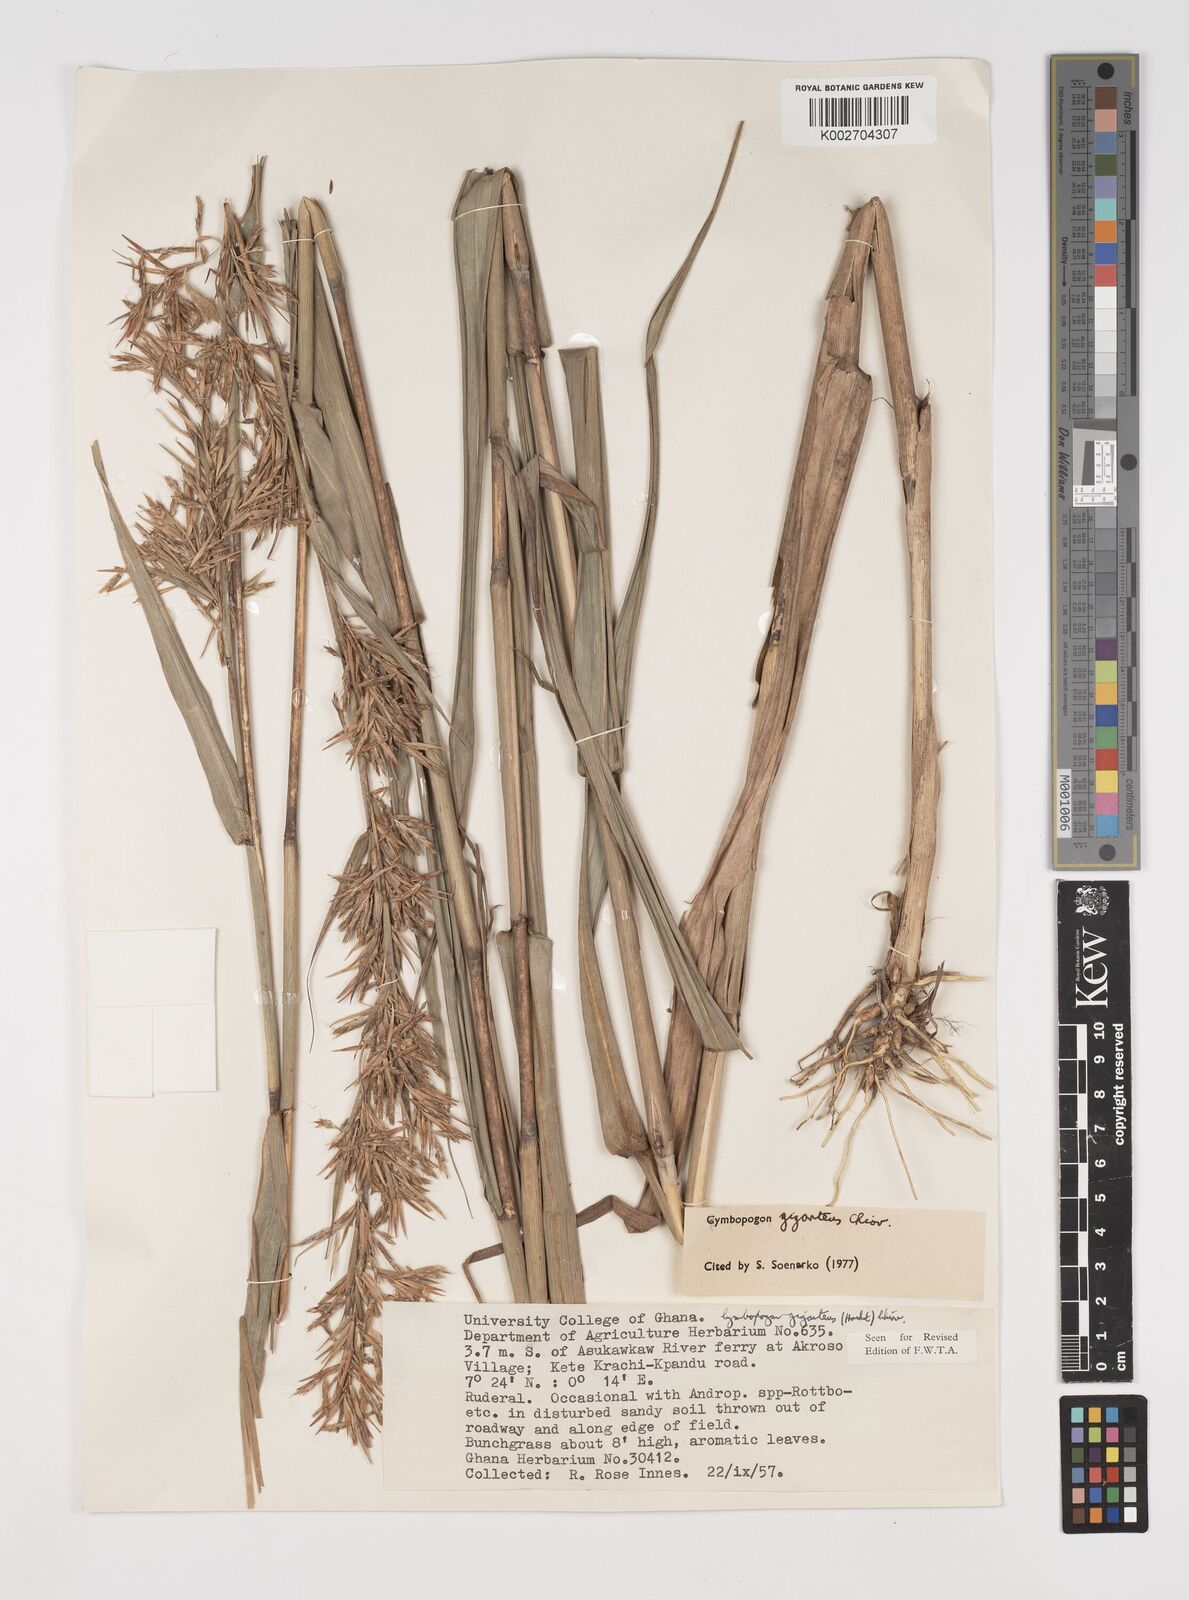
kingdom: Plantae
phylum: Tracheophyta
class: Liliopsida
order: Poales
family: Poaceae
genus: Cymbopogon
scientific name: Cymbopogon giganteus
